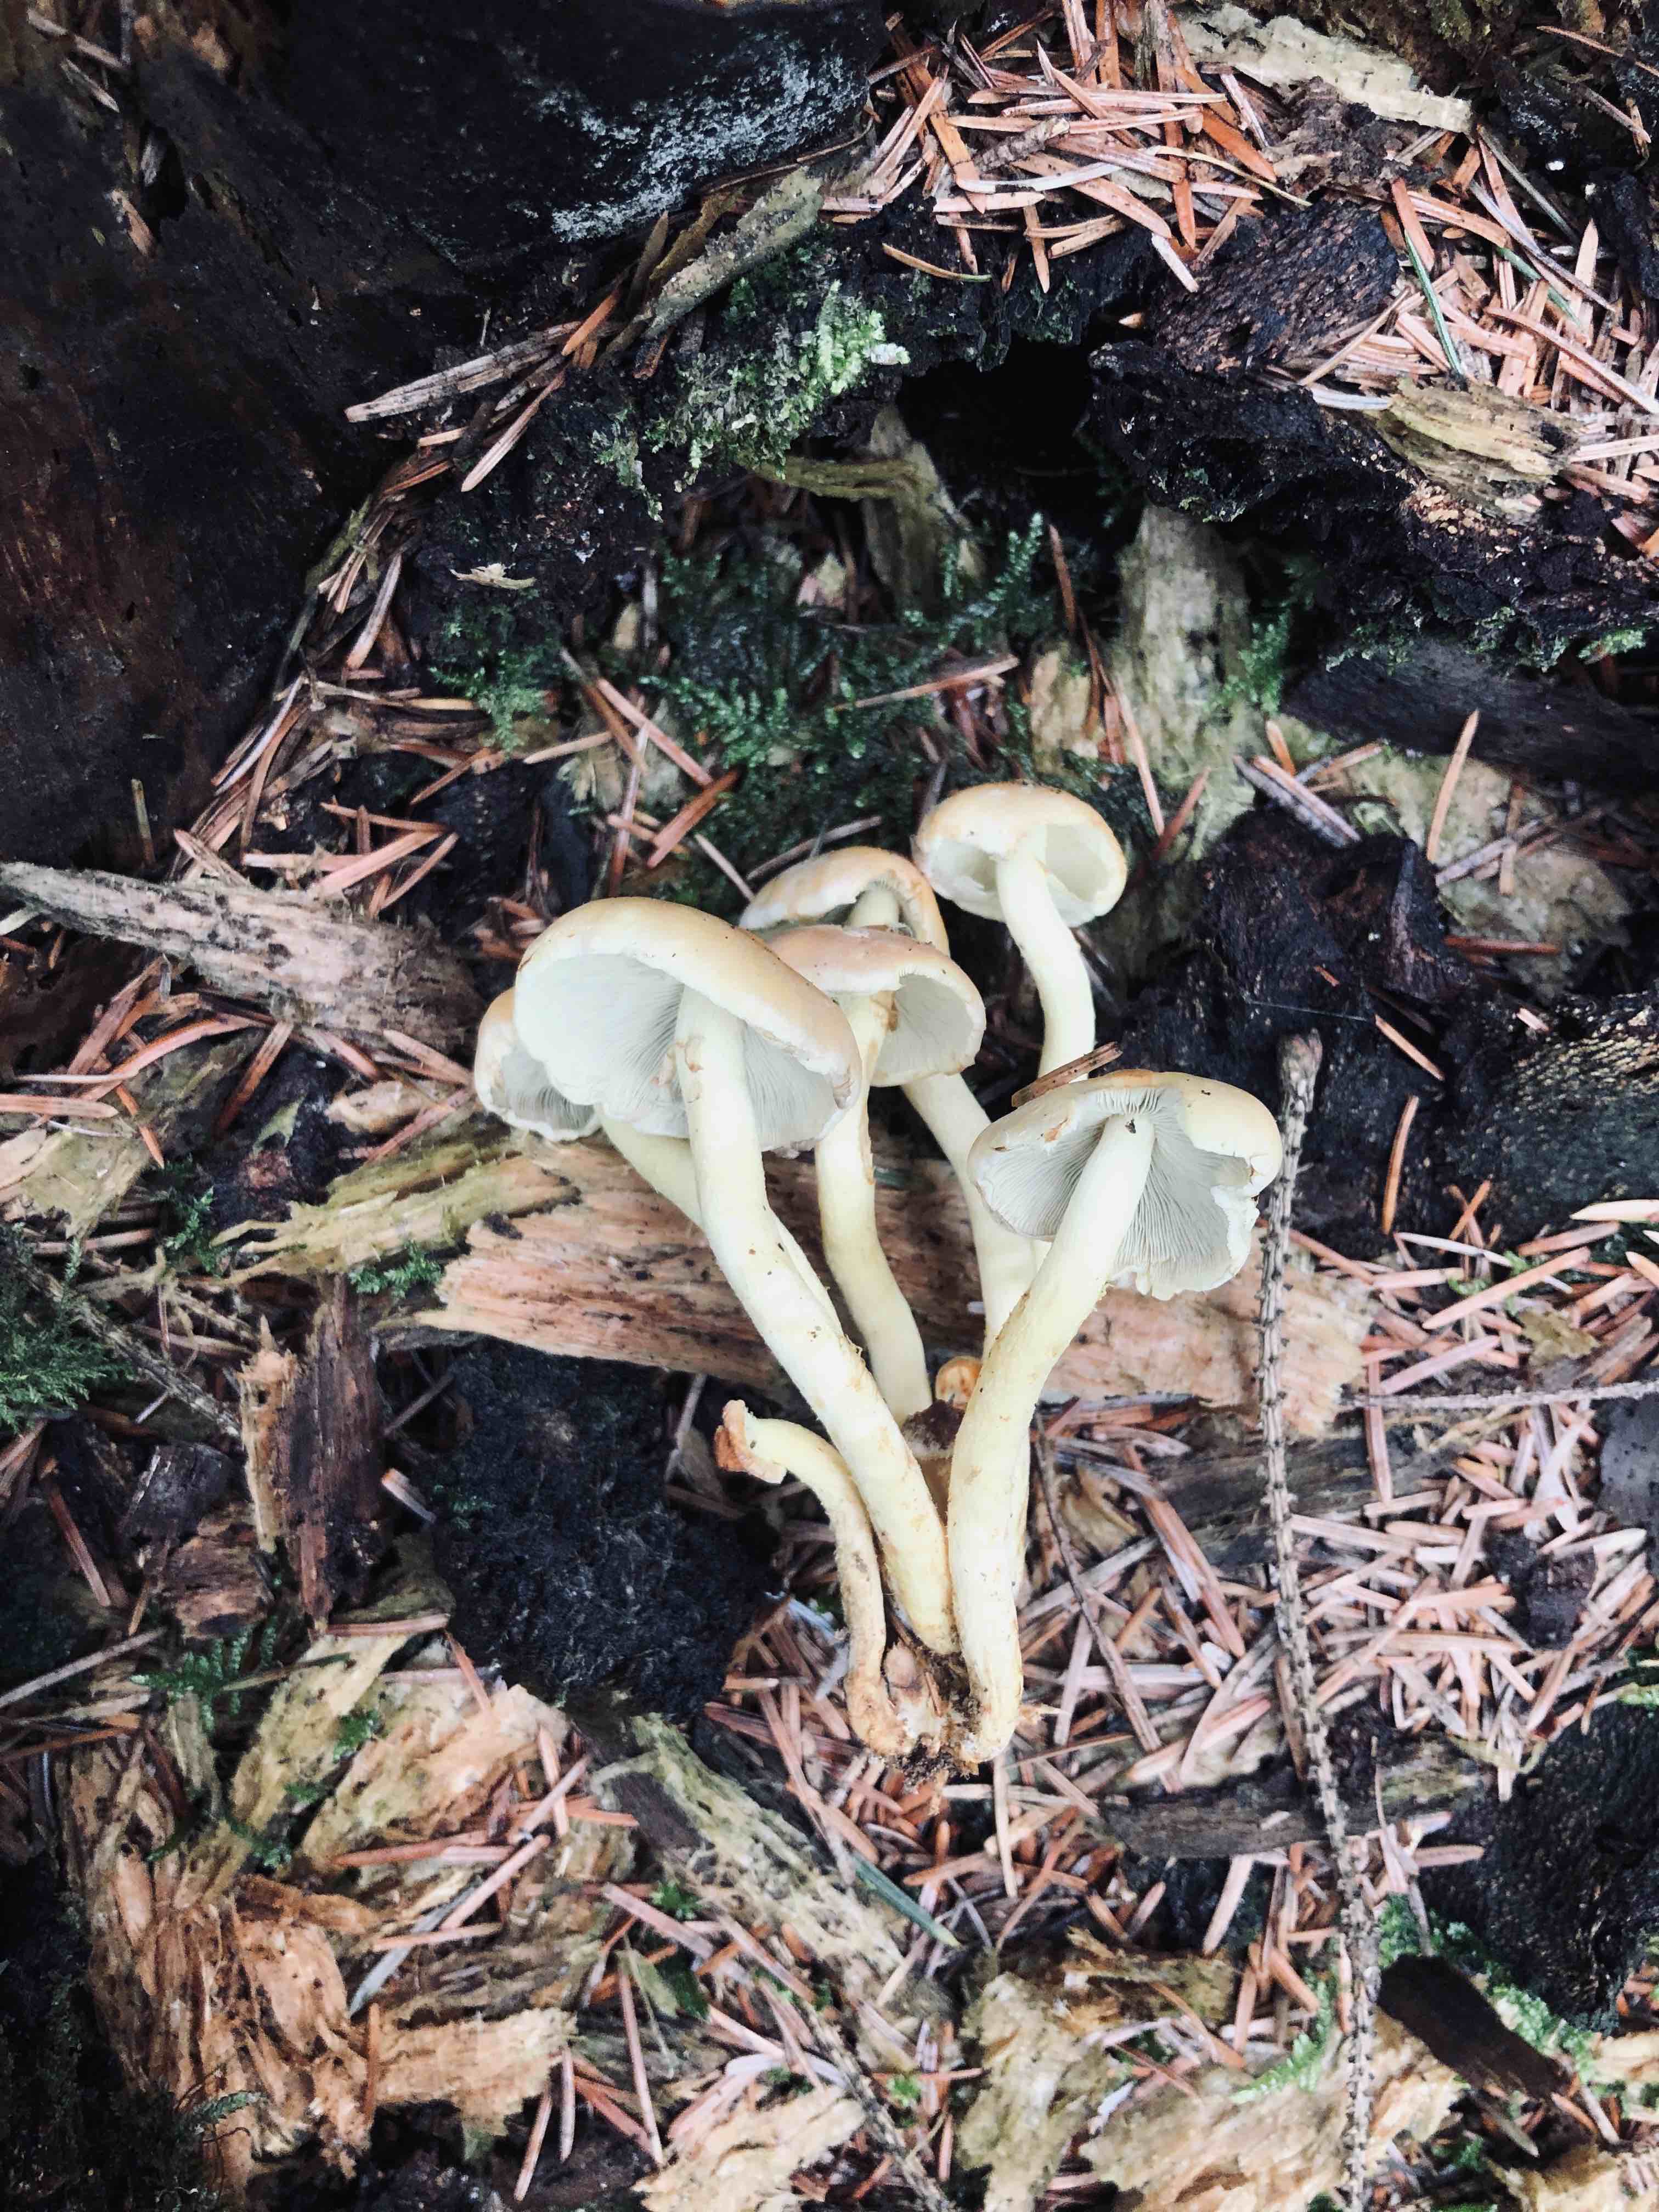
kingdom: Fungi
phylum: Basidiomycota
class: Agaricomycetes
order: Agaricales
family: Strophariaceae
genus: Hypholoma
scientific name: Hypholoma fasciculare
